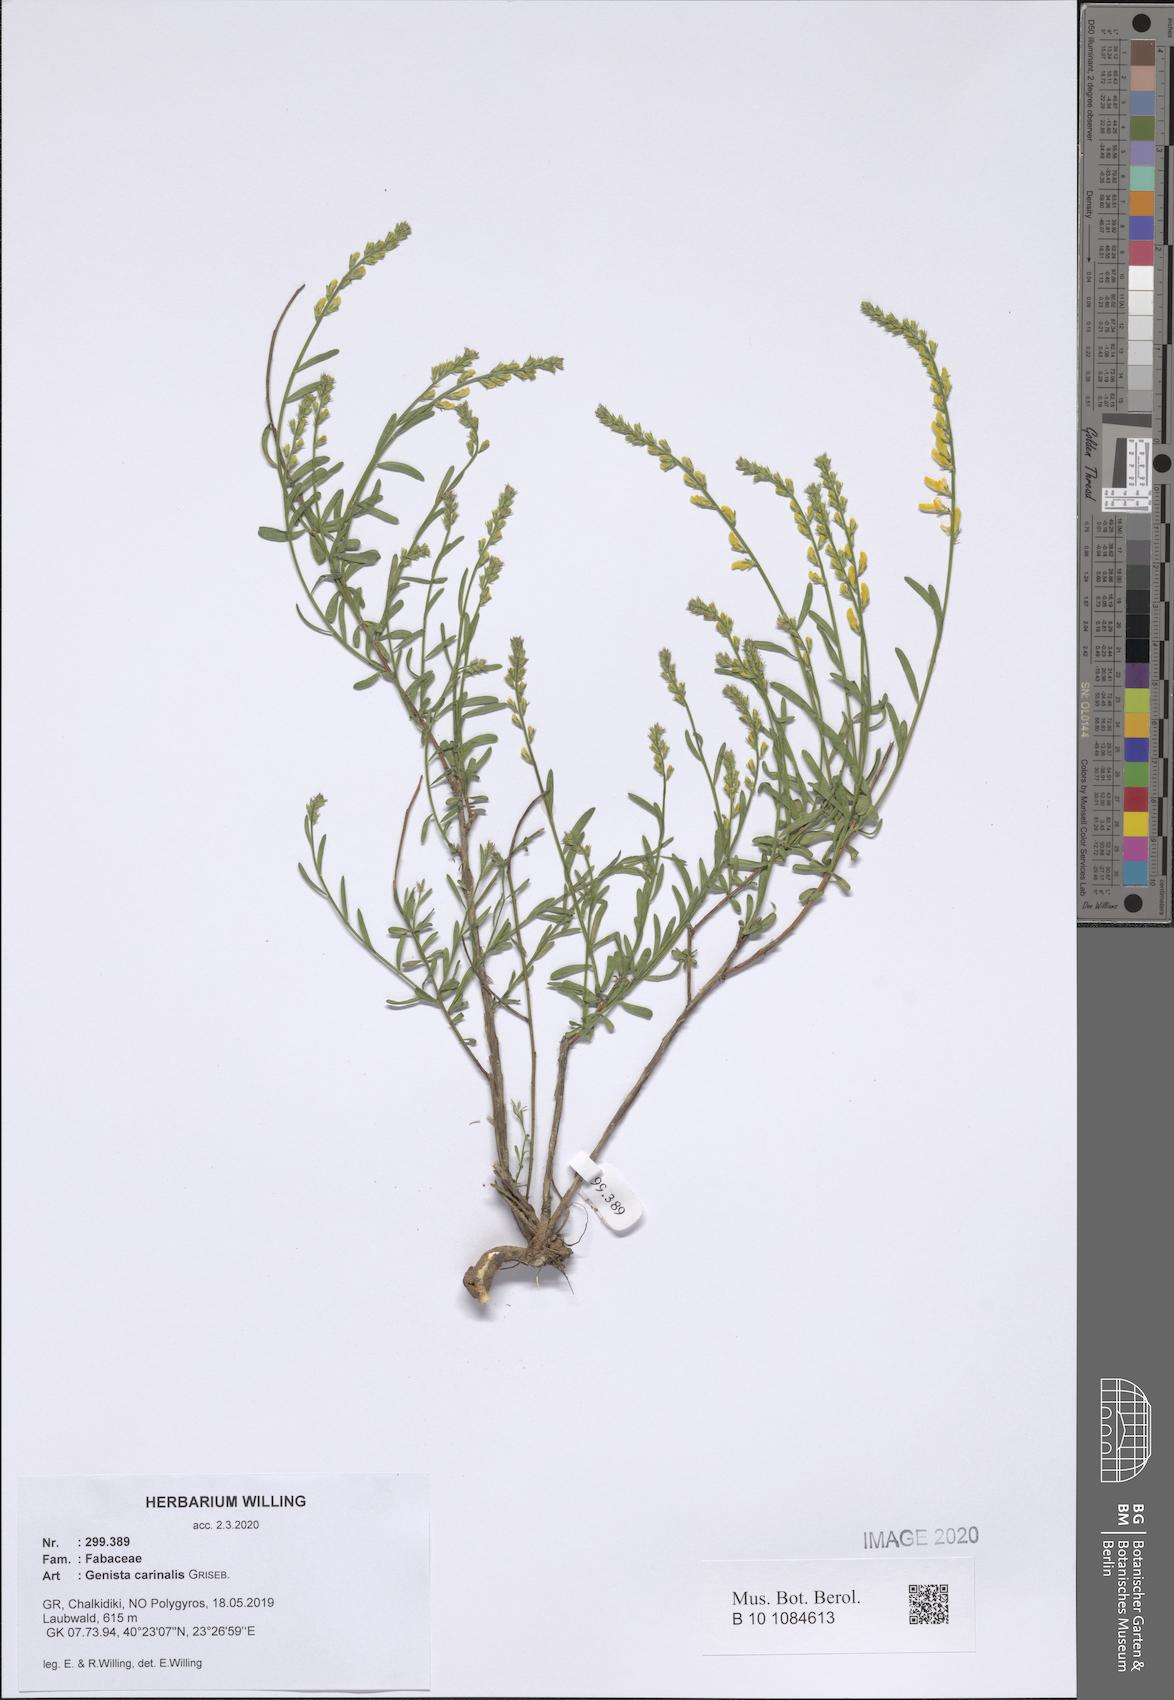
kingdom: Plantae
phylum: Tracheophyta
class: Magnoliopsida
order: Fabales
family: Fabaceae
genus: Genista
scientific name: Genista carinalis
